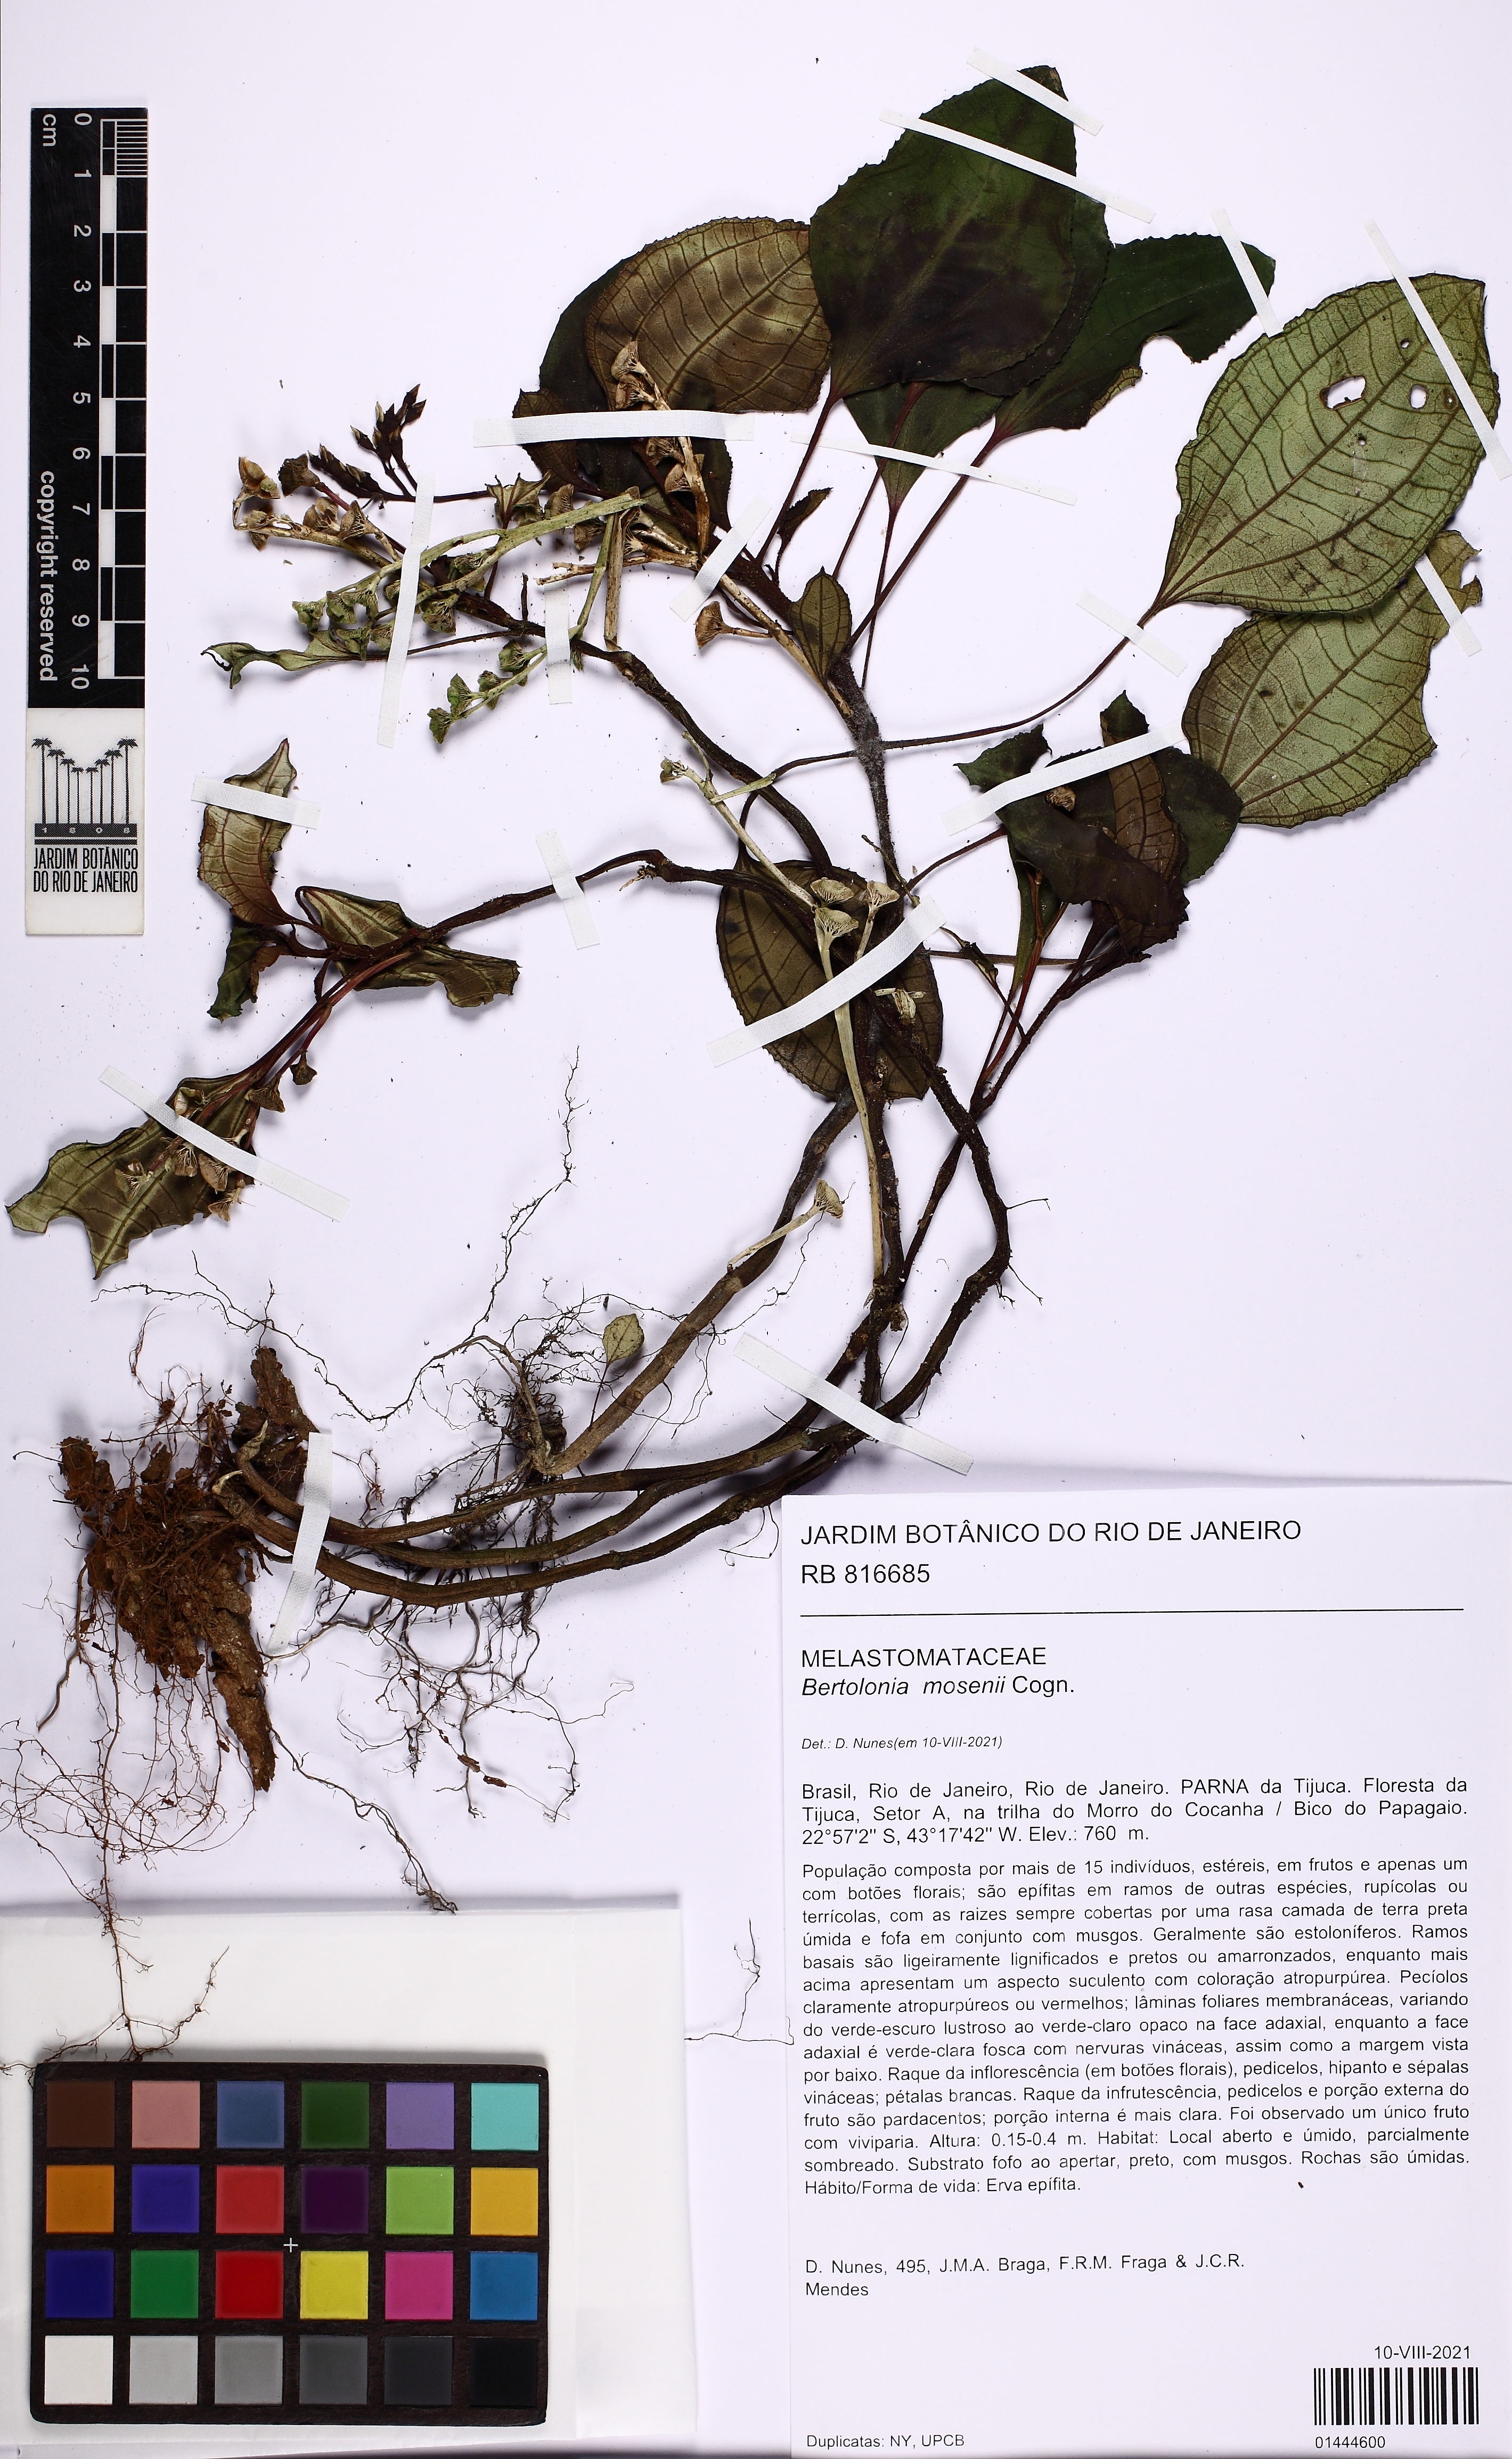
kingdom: Plantae
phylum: Tracheophyta
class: Magnoliopsida
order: Myrtales
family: Melastomataceae
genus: Bertolonia
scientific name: Bertolonia mosenii
